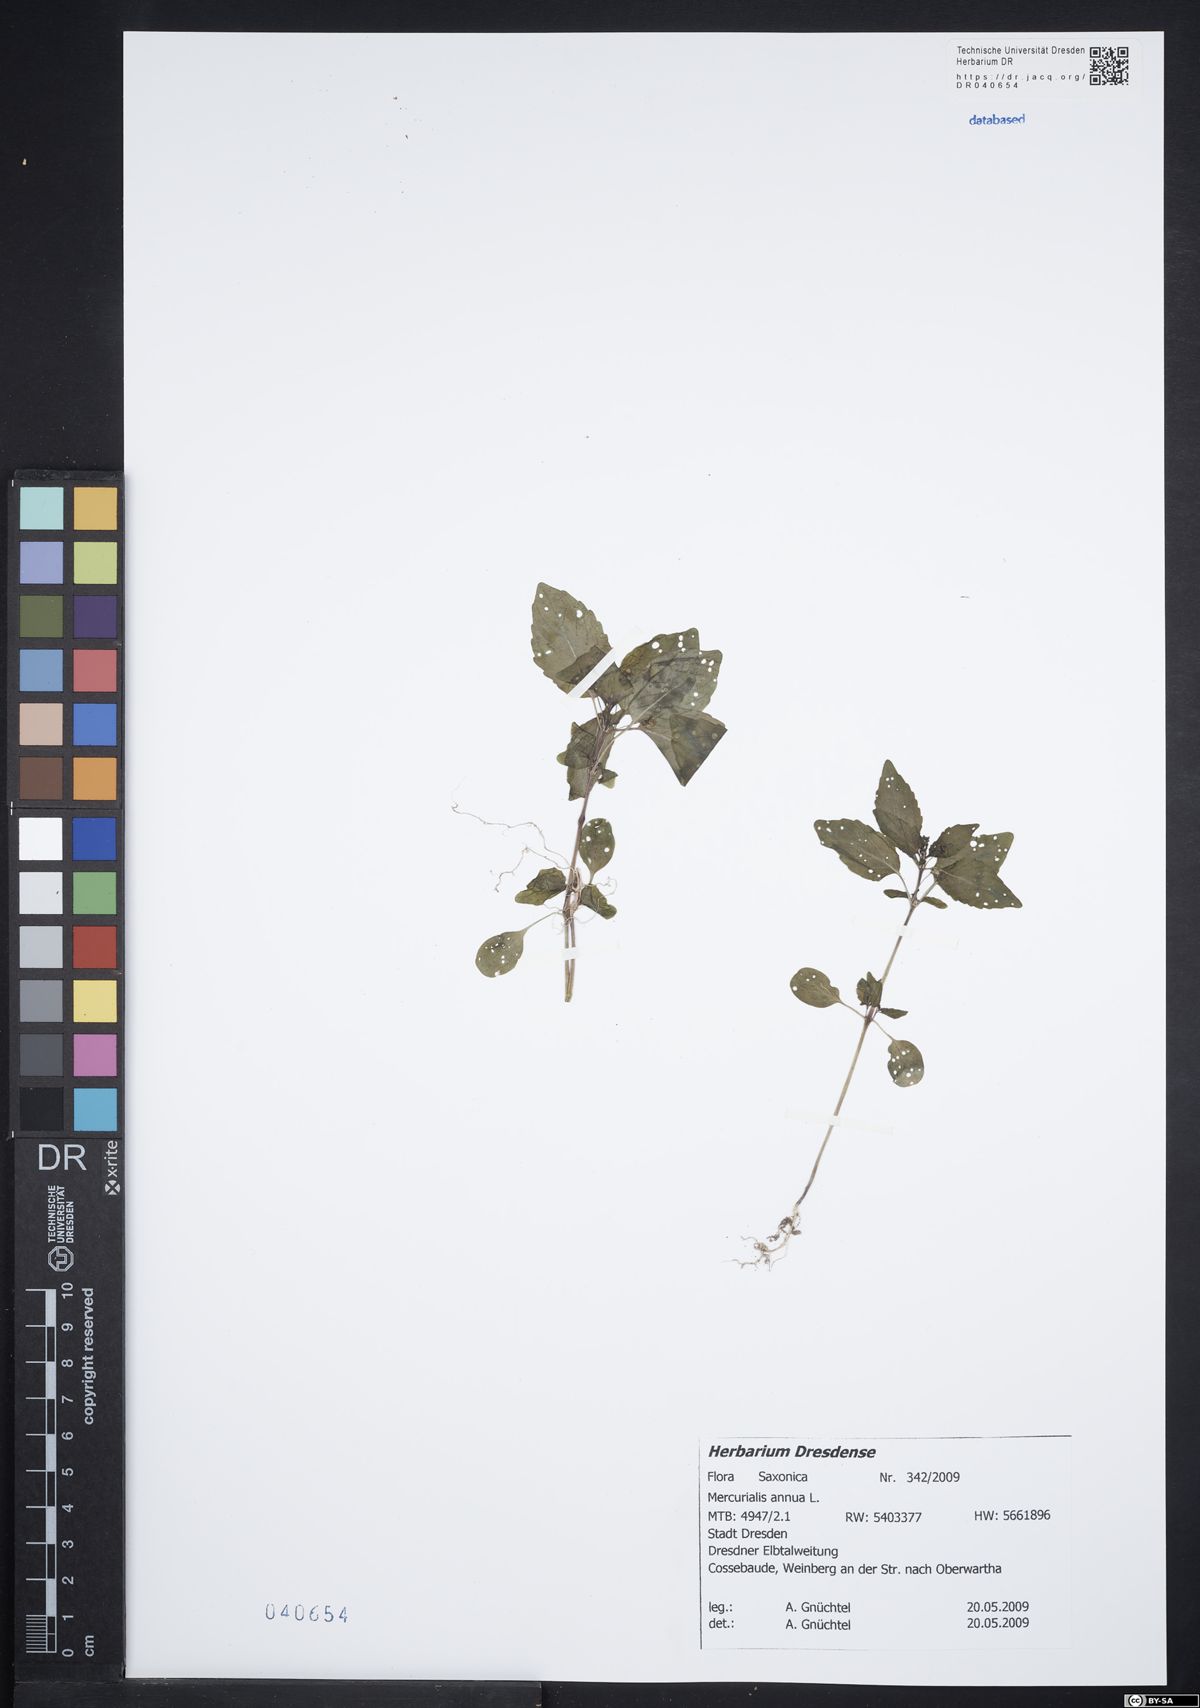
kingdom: Plantae
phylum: Tracheophyta
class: Magnoliopsida
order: Malpighiales
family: Euphorbiaceae
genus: Mercurialis
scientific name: Mercurialis annua
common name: Annual mercury
